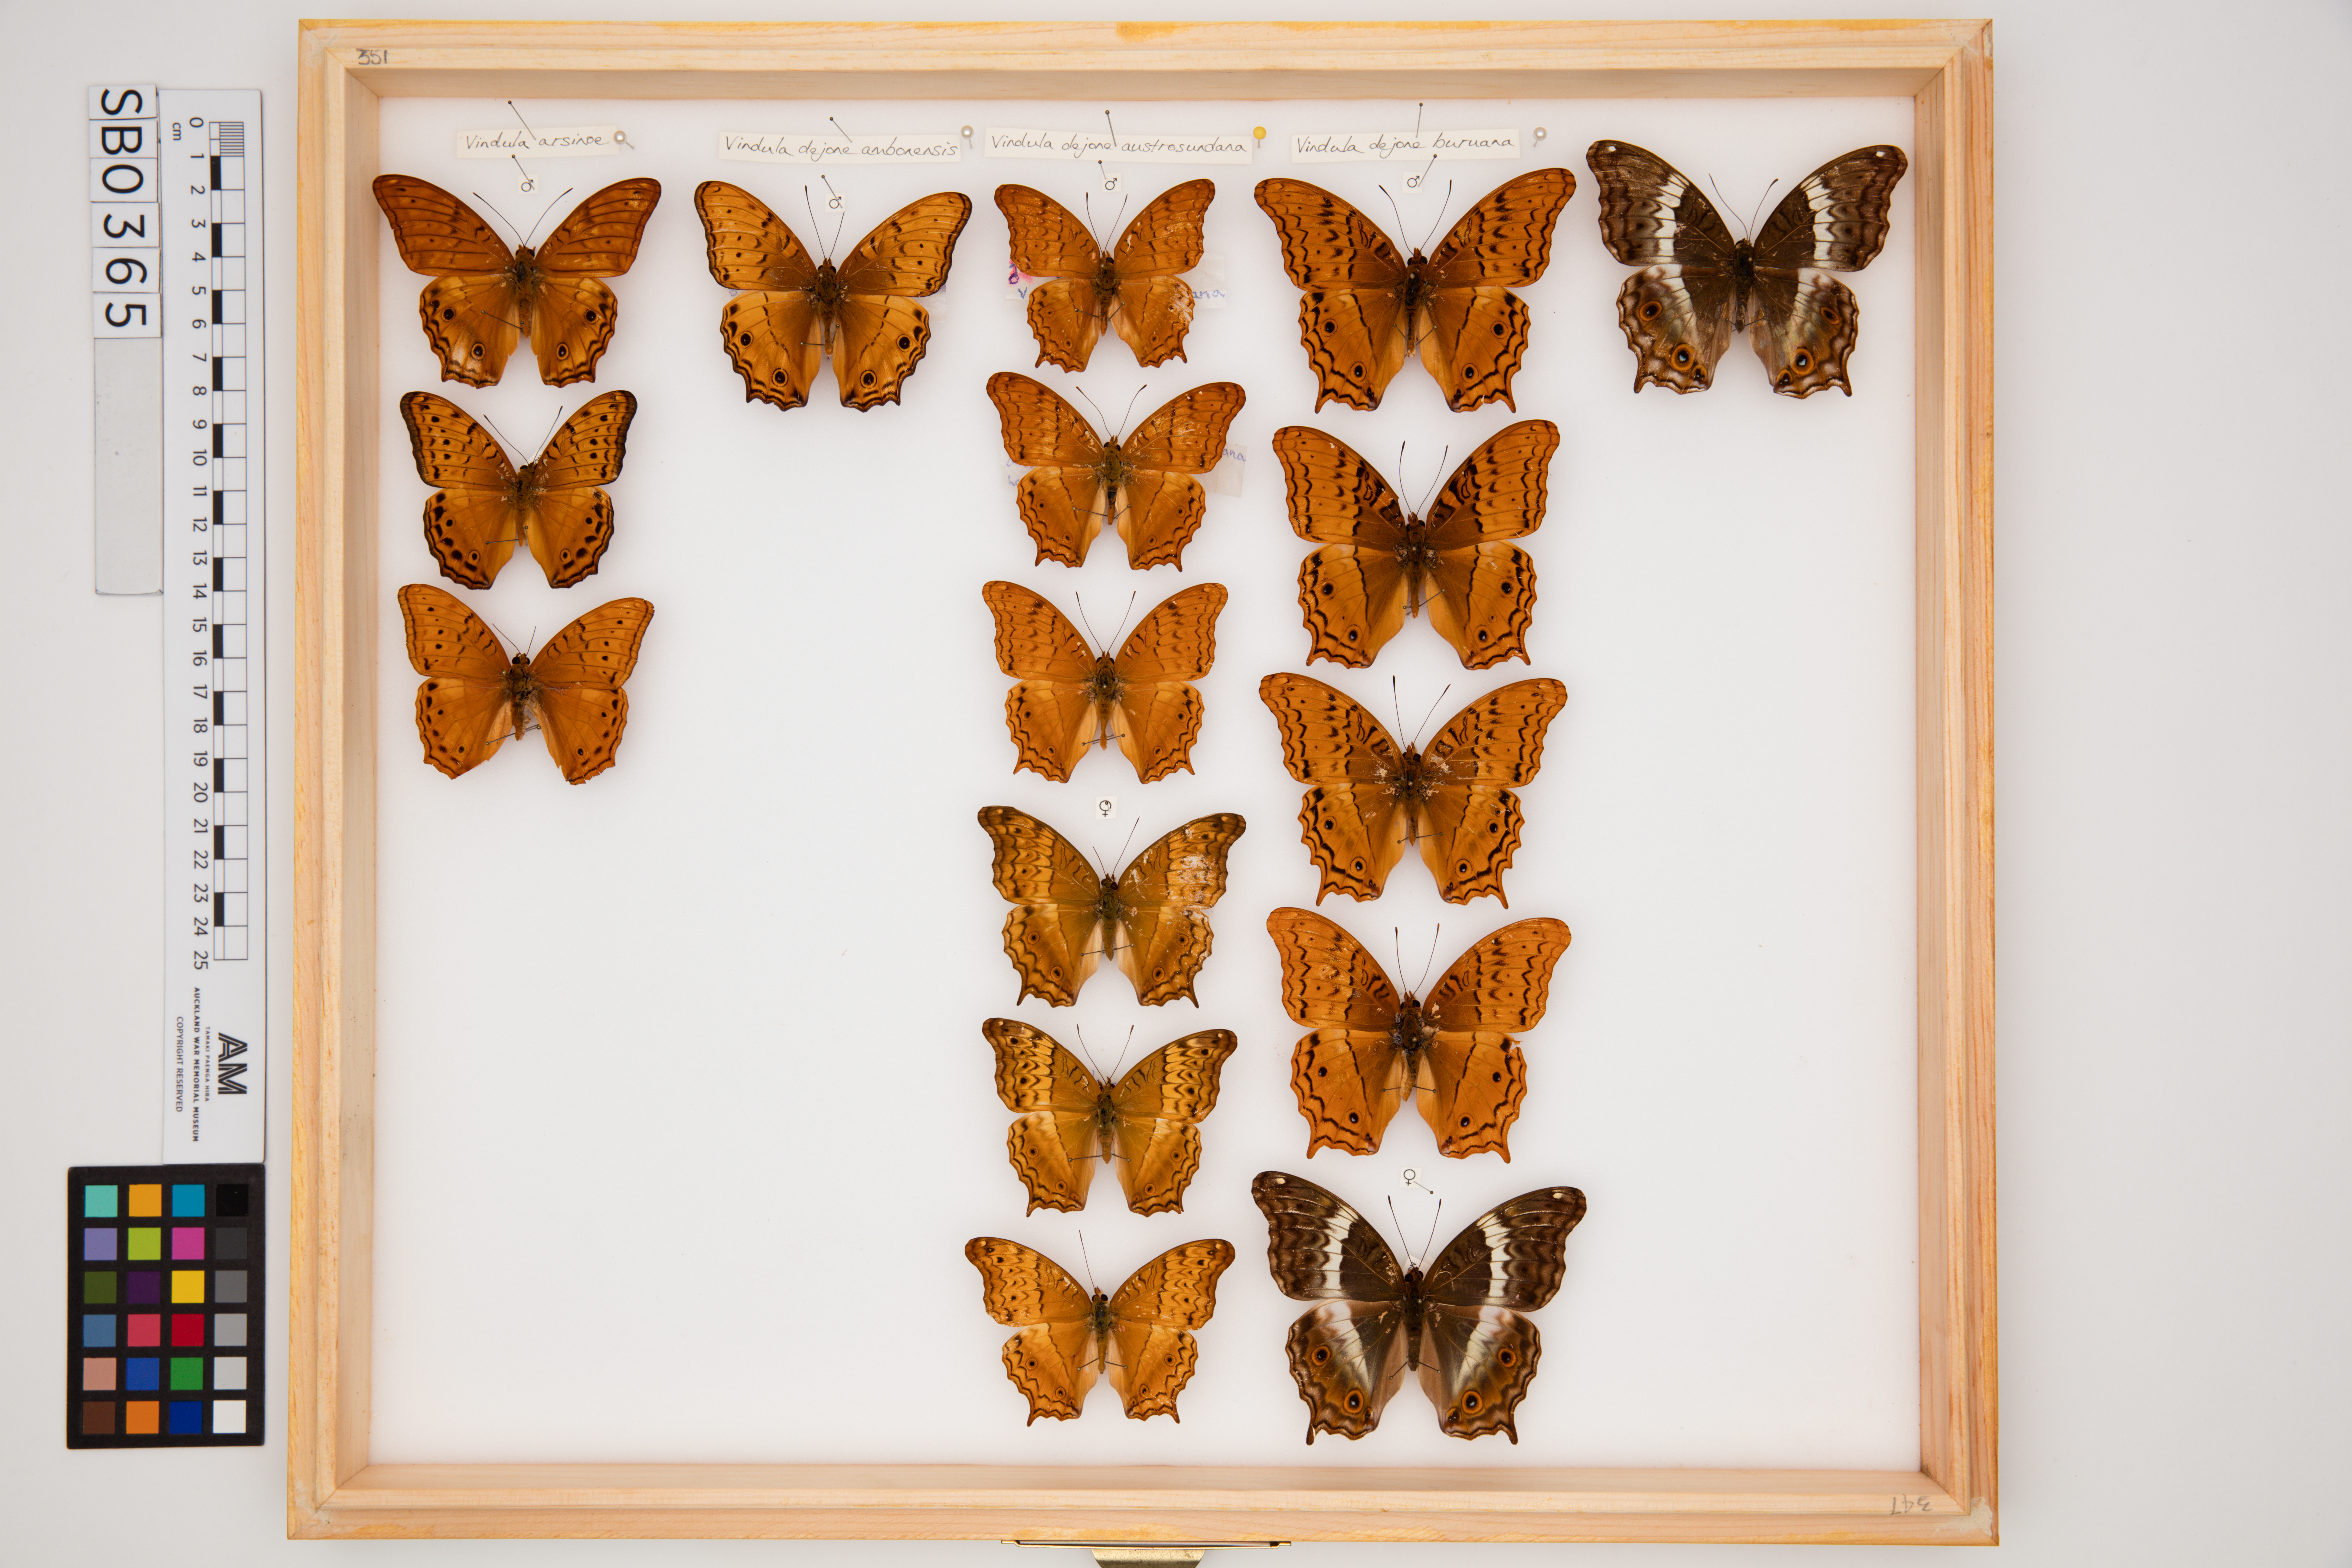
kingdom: Animalia
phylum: Arthropoda
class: Insecta
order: Lepidoptera
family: Nymphalidae
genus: Vindula
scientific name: Vindula deione
